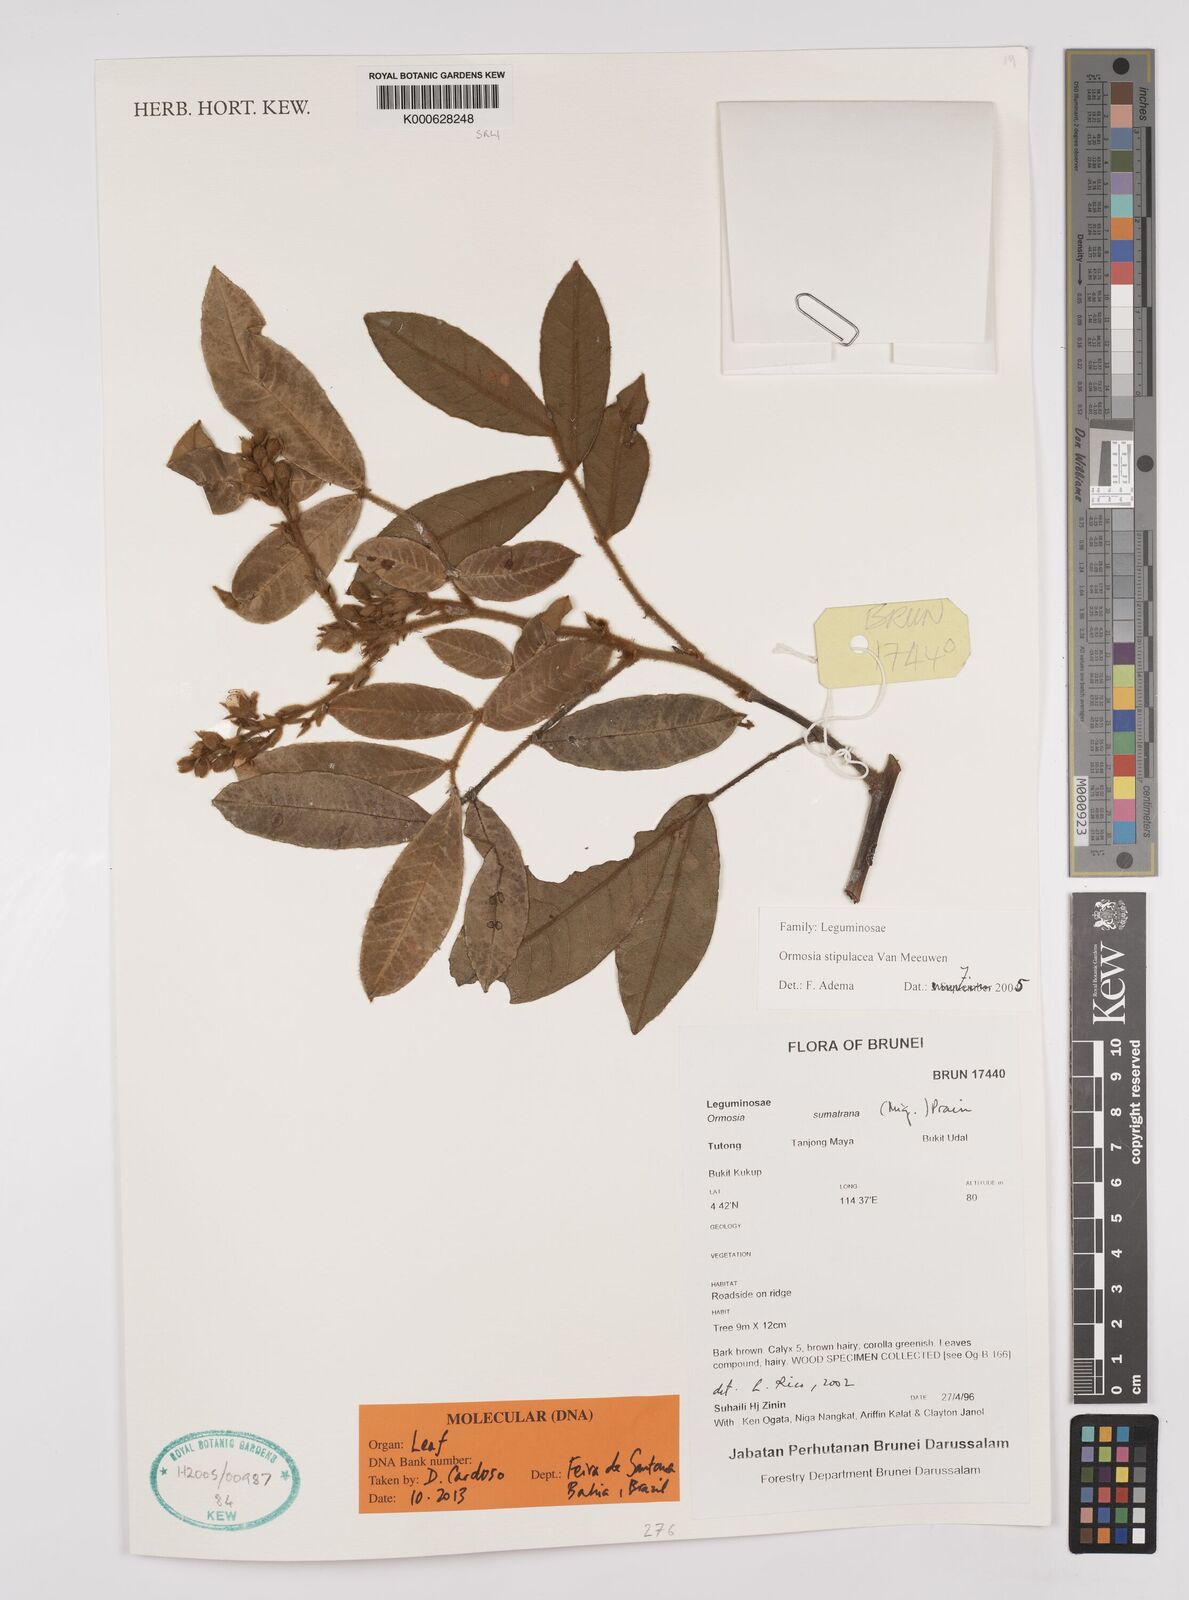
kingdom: Plantae
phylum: Tracheophyta
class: Magnoliopsida
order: Fabales
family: Fabaceae
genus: Ormosia
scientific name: Ormosia stipulacea
